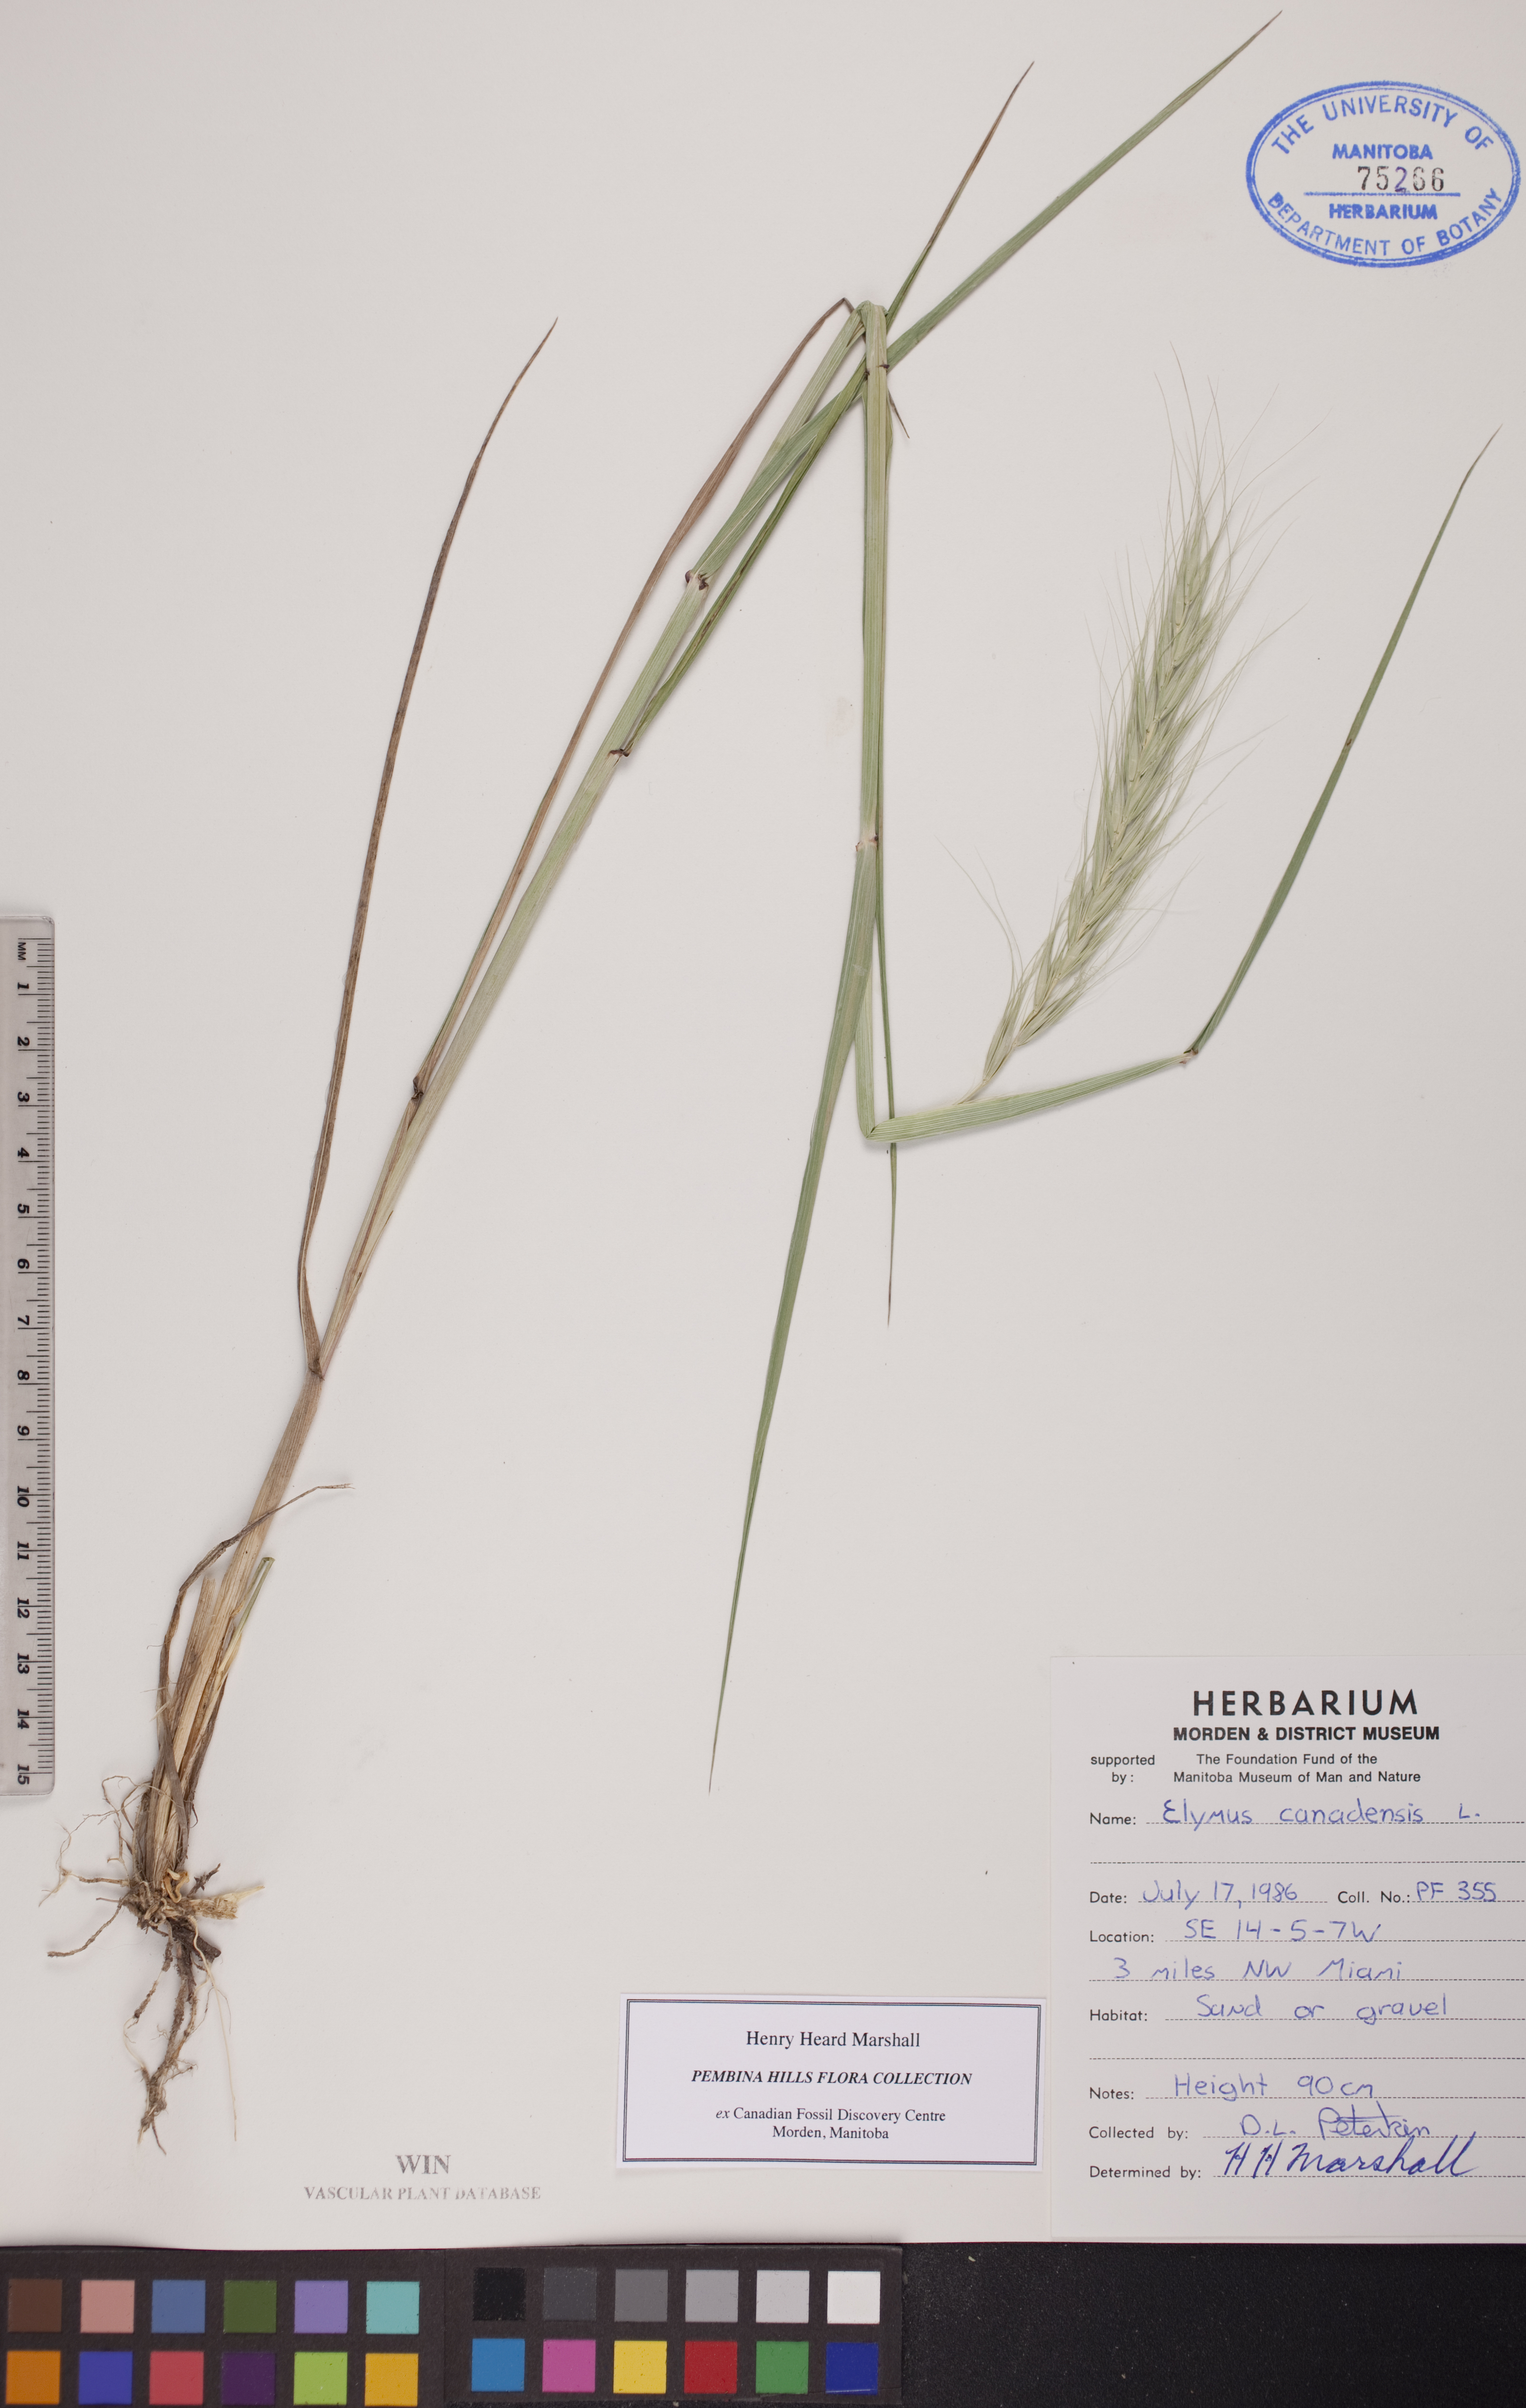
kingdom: Plantae
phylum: Tracheophyta
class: Liliopsida
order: Poales
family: Poaceae
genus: Elymus
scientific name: Elymus canadensis
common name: Canada wild rye
